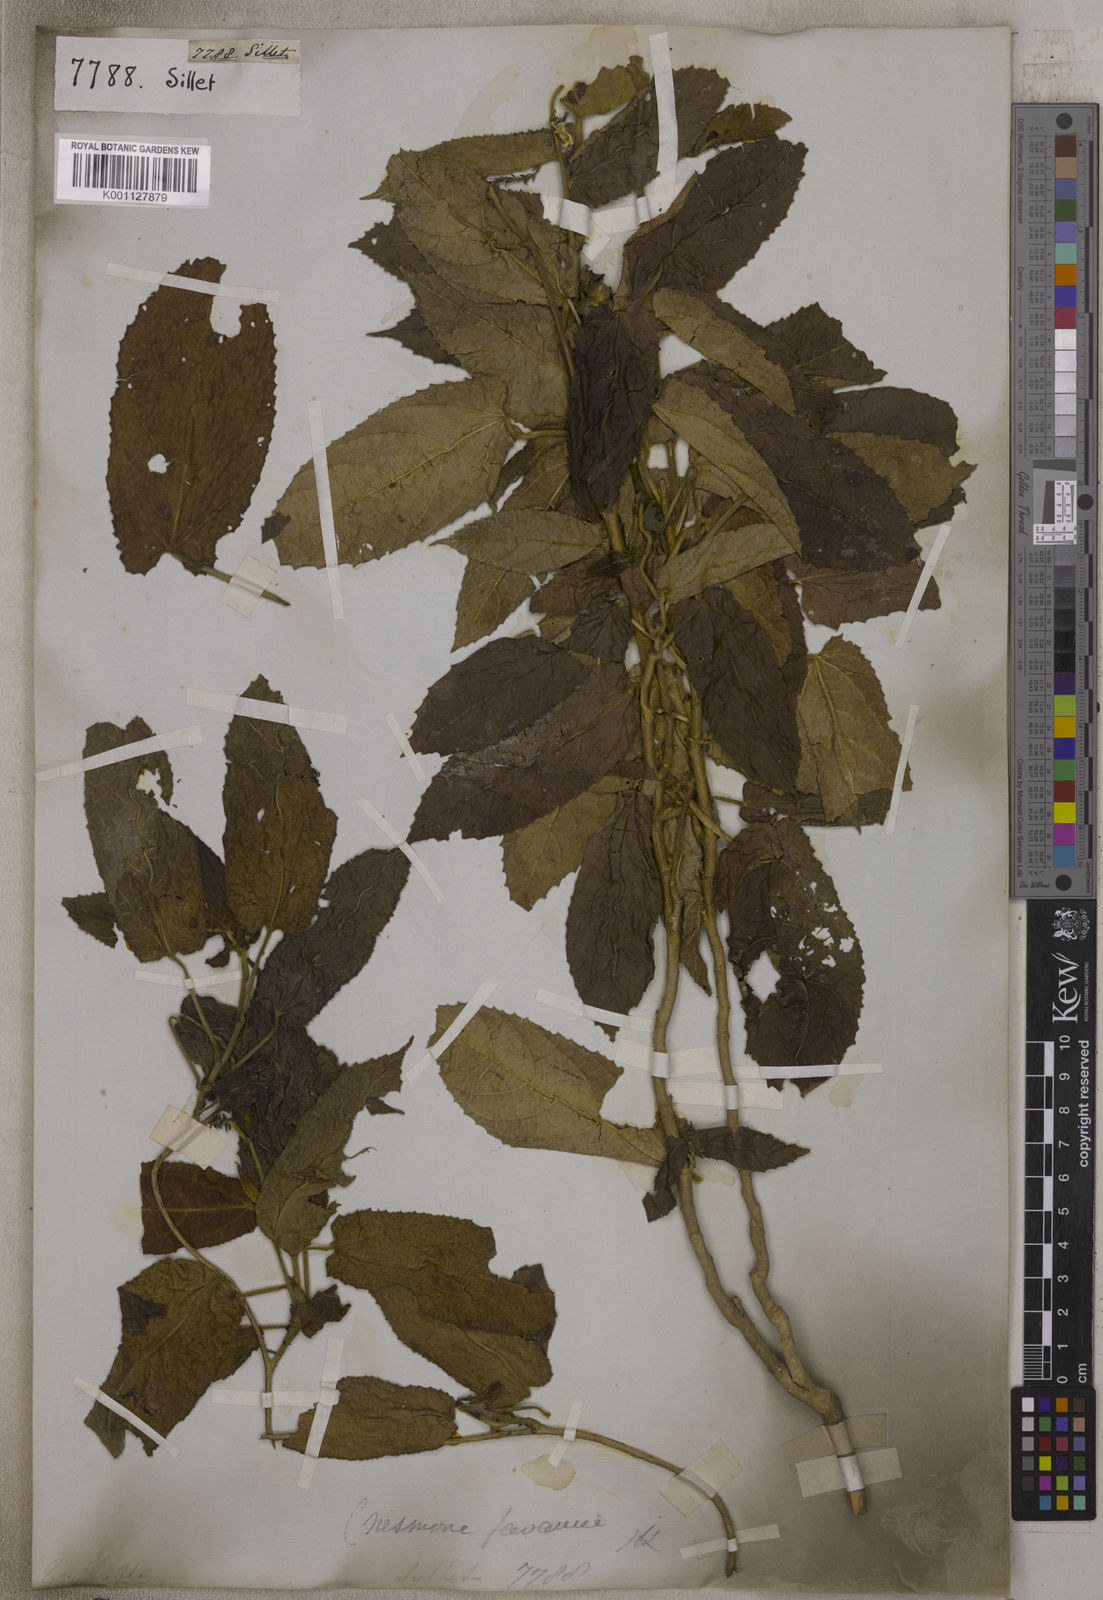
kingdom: Plantae
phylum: Tracheophyta
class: Magnoliopsida
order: Malpighiales
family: Euphorbiaceae
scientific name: Euphorbiaceae
